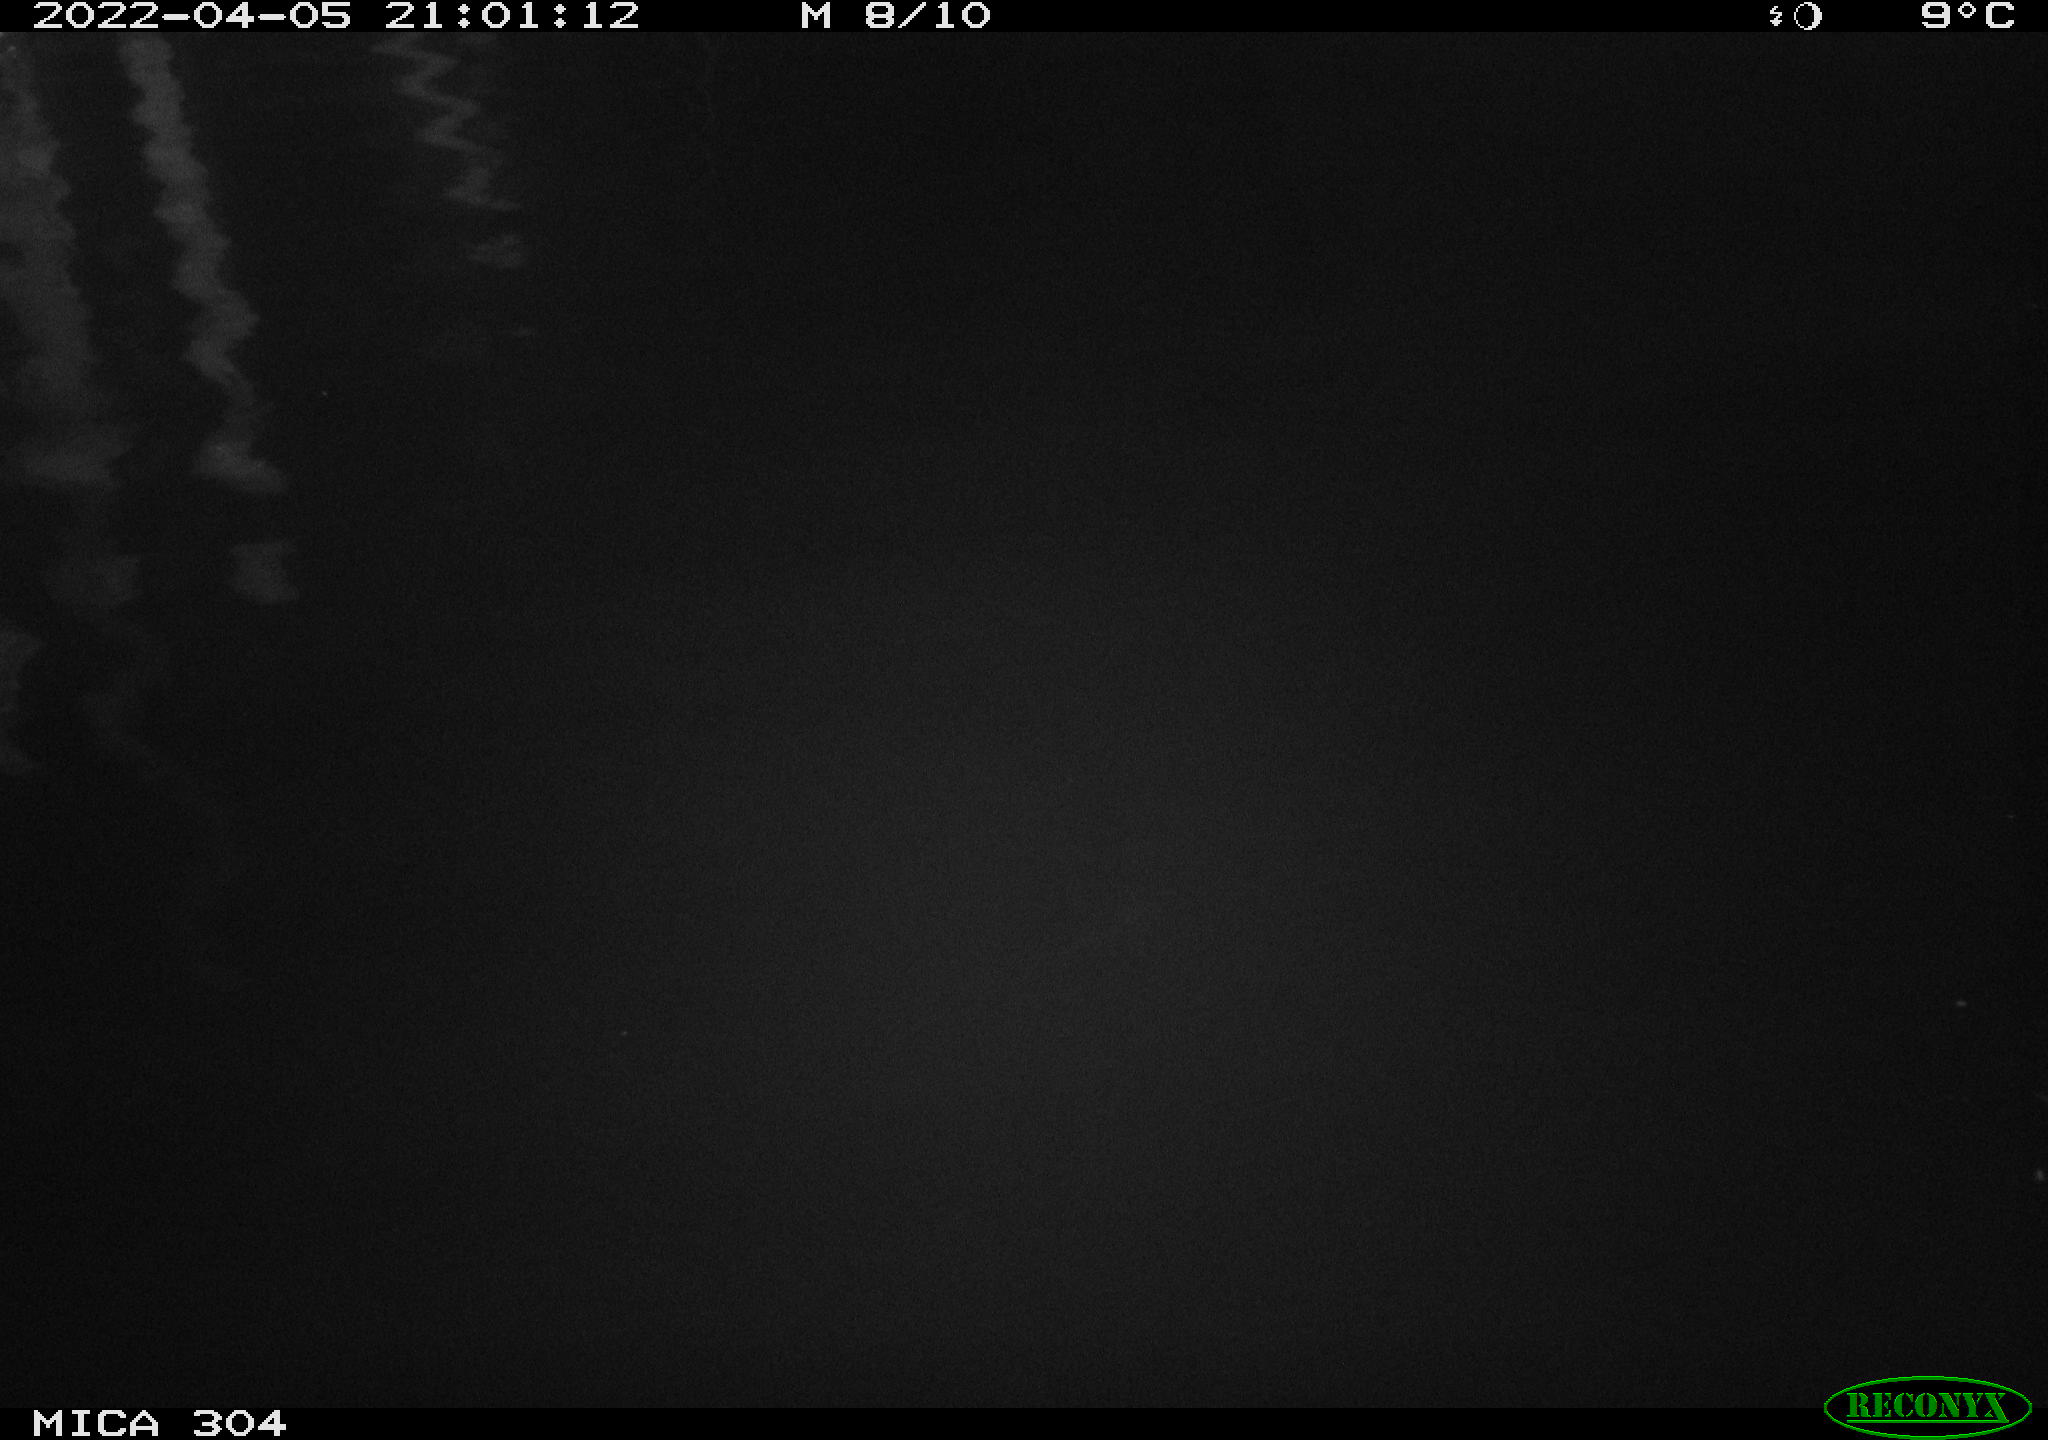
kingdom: Animalia
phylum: Chordata
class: Aves
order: Anseriformes
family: Anatidae
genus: Anas
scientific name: Anas platyrhynchos
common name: Mallard
